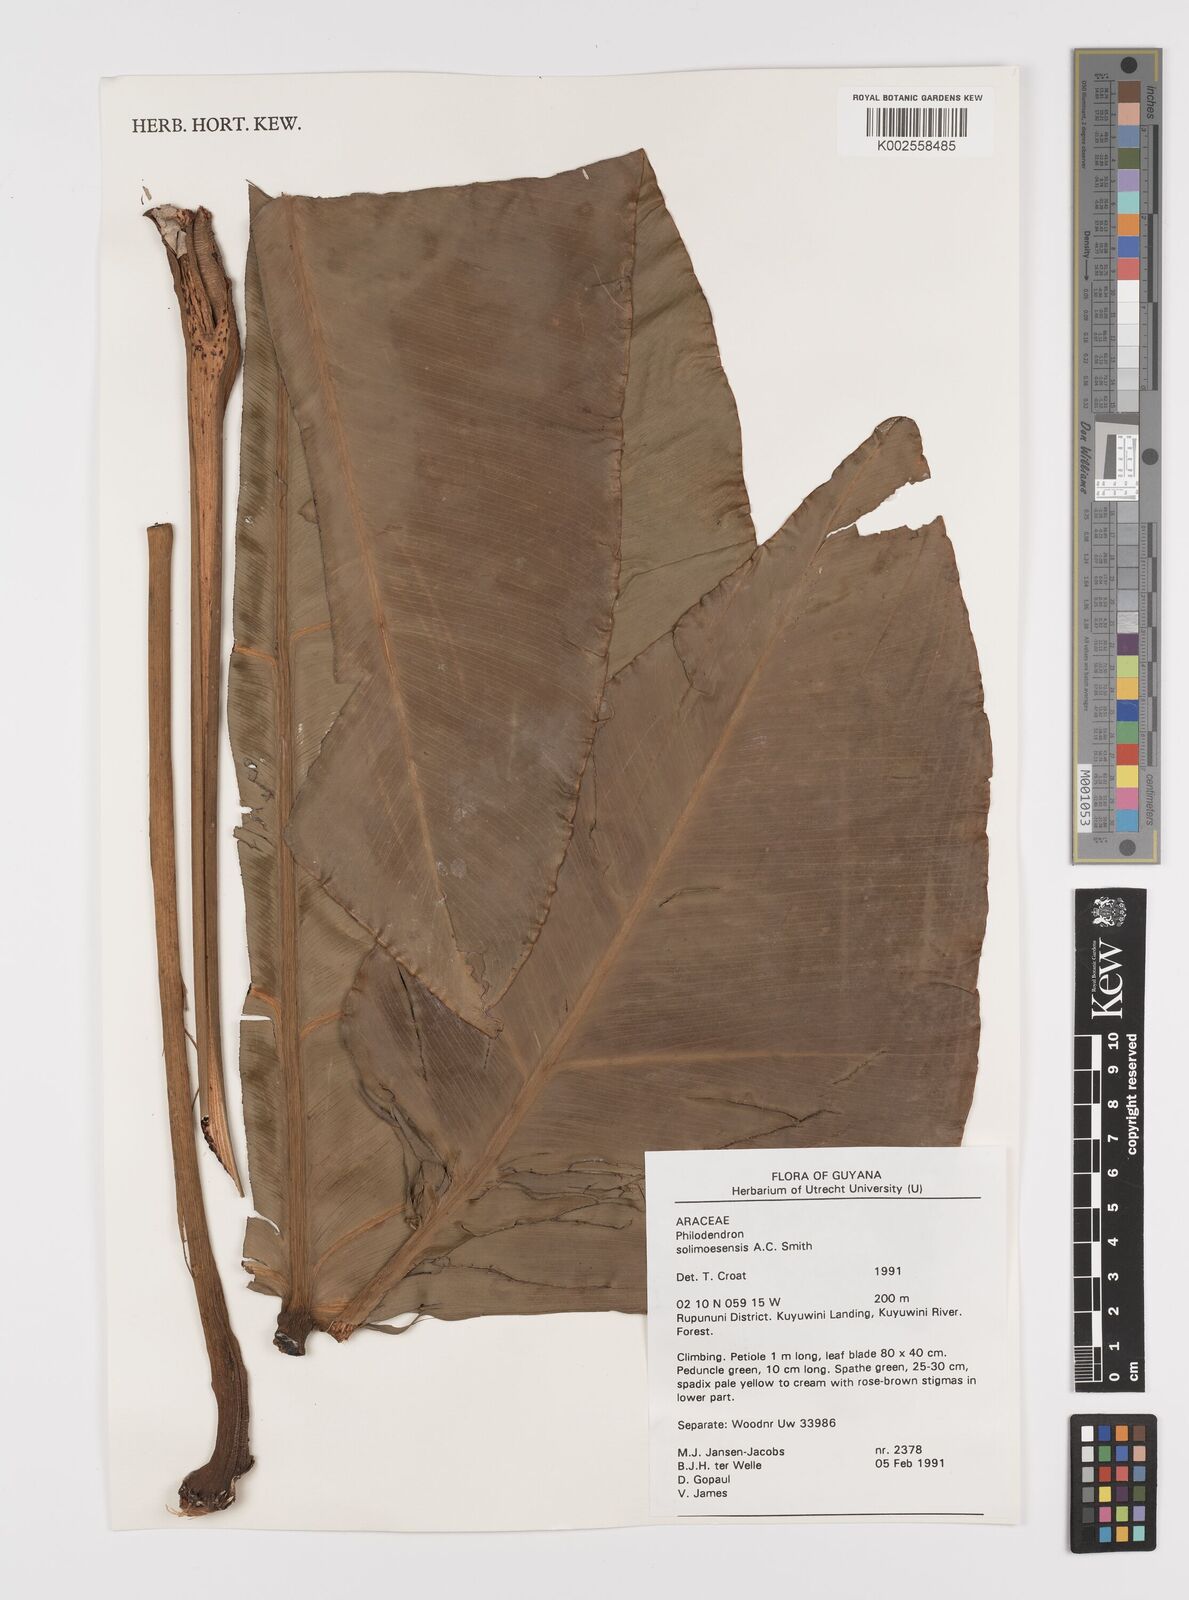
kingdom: Plantae
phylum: Tracheophyta
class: Liliopsida
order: Alismatales
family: Araceae
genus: Thaumatophyllum
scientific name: Thaumatophyllum solimoesense
